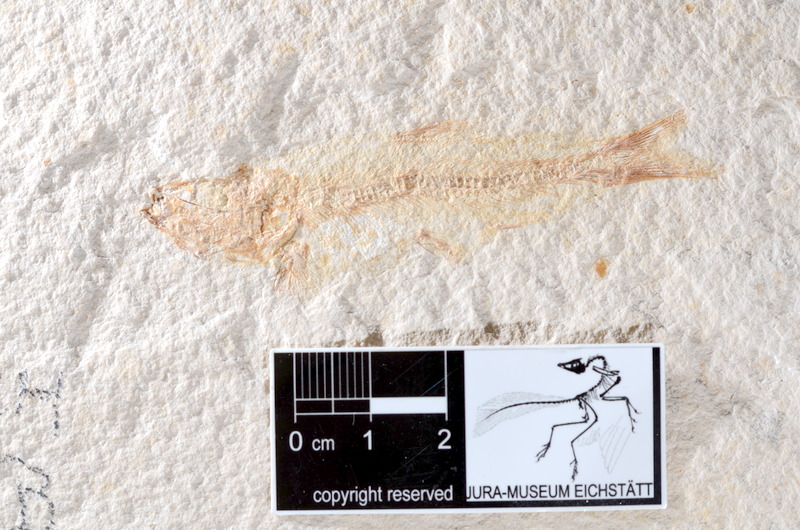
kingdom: Animalia
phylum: Chordata
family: Ascalaboidae
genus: Tharsis
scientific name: Tharsis dubius
